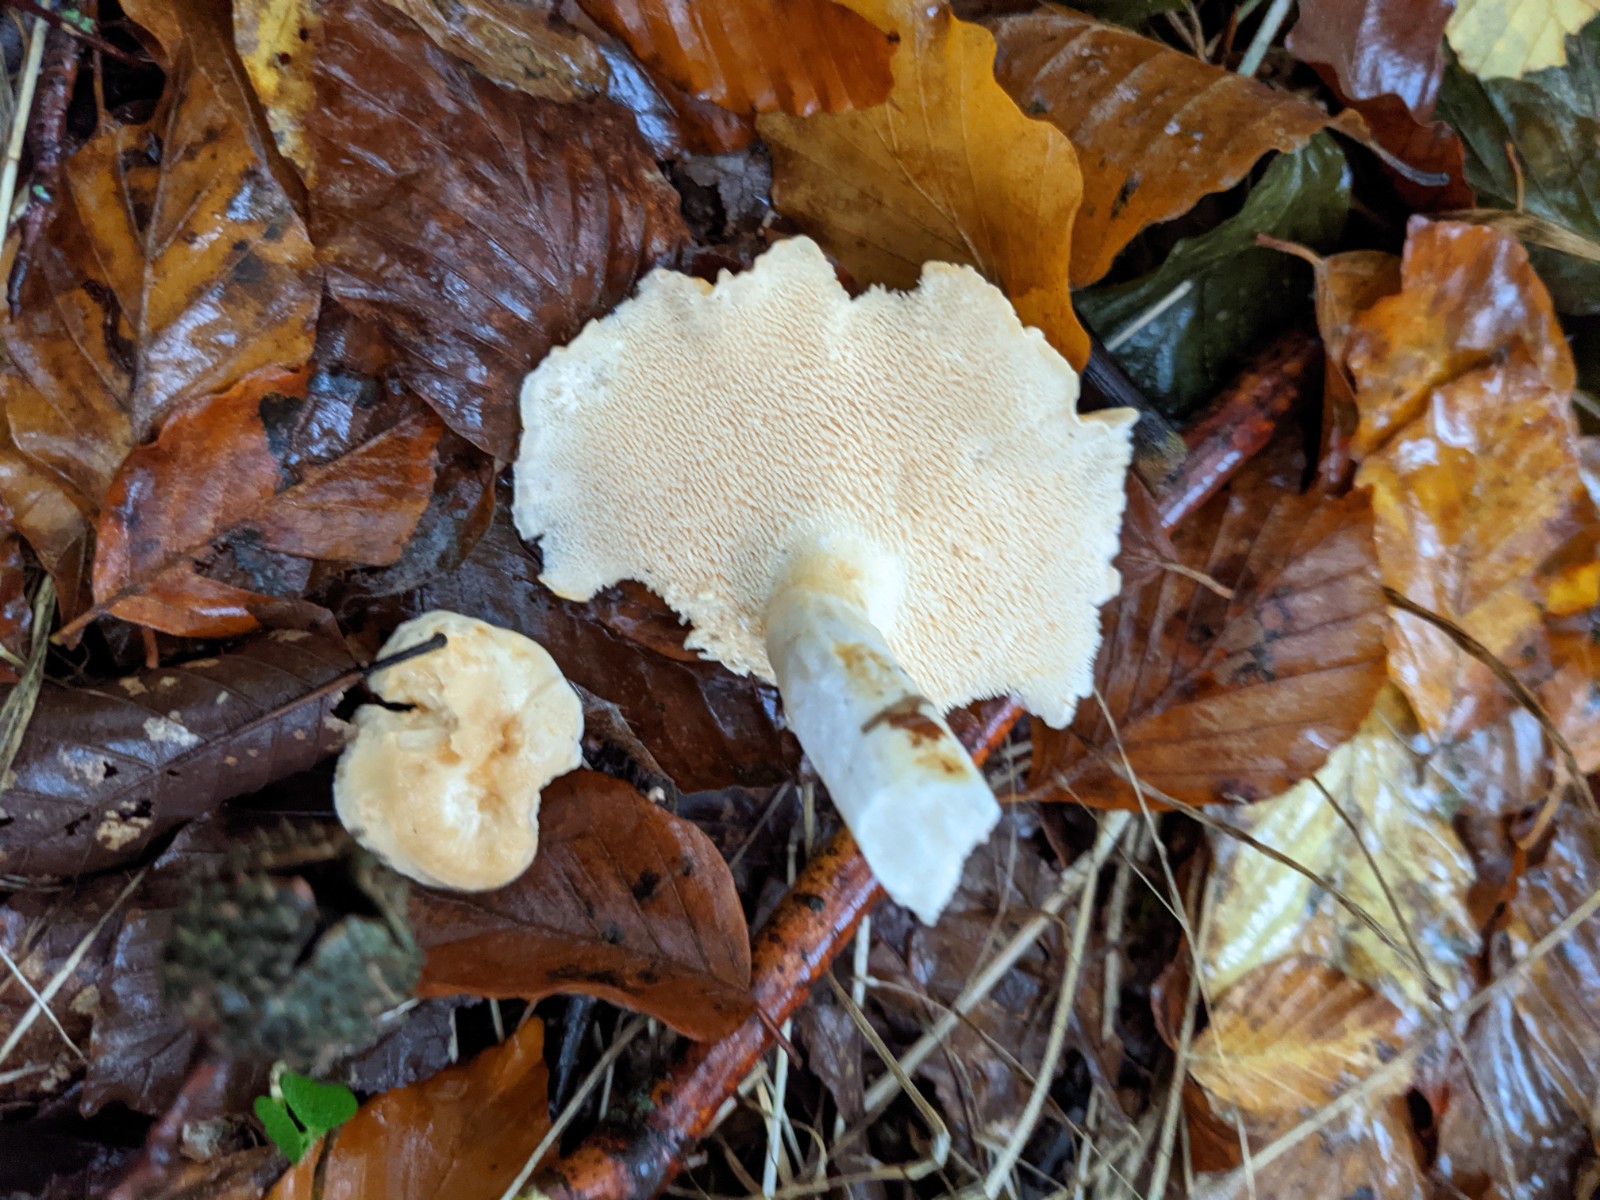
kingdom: Fungi
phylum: Basidiomycota
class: Agaricomycetes
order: Cantharellales
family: Hydnaceae
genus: Hydnum
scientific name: Hydnum
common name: pigsvamp
